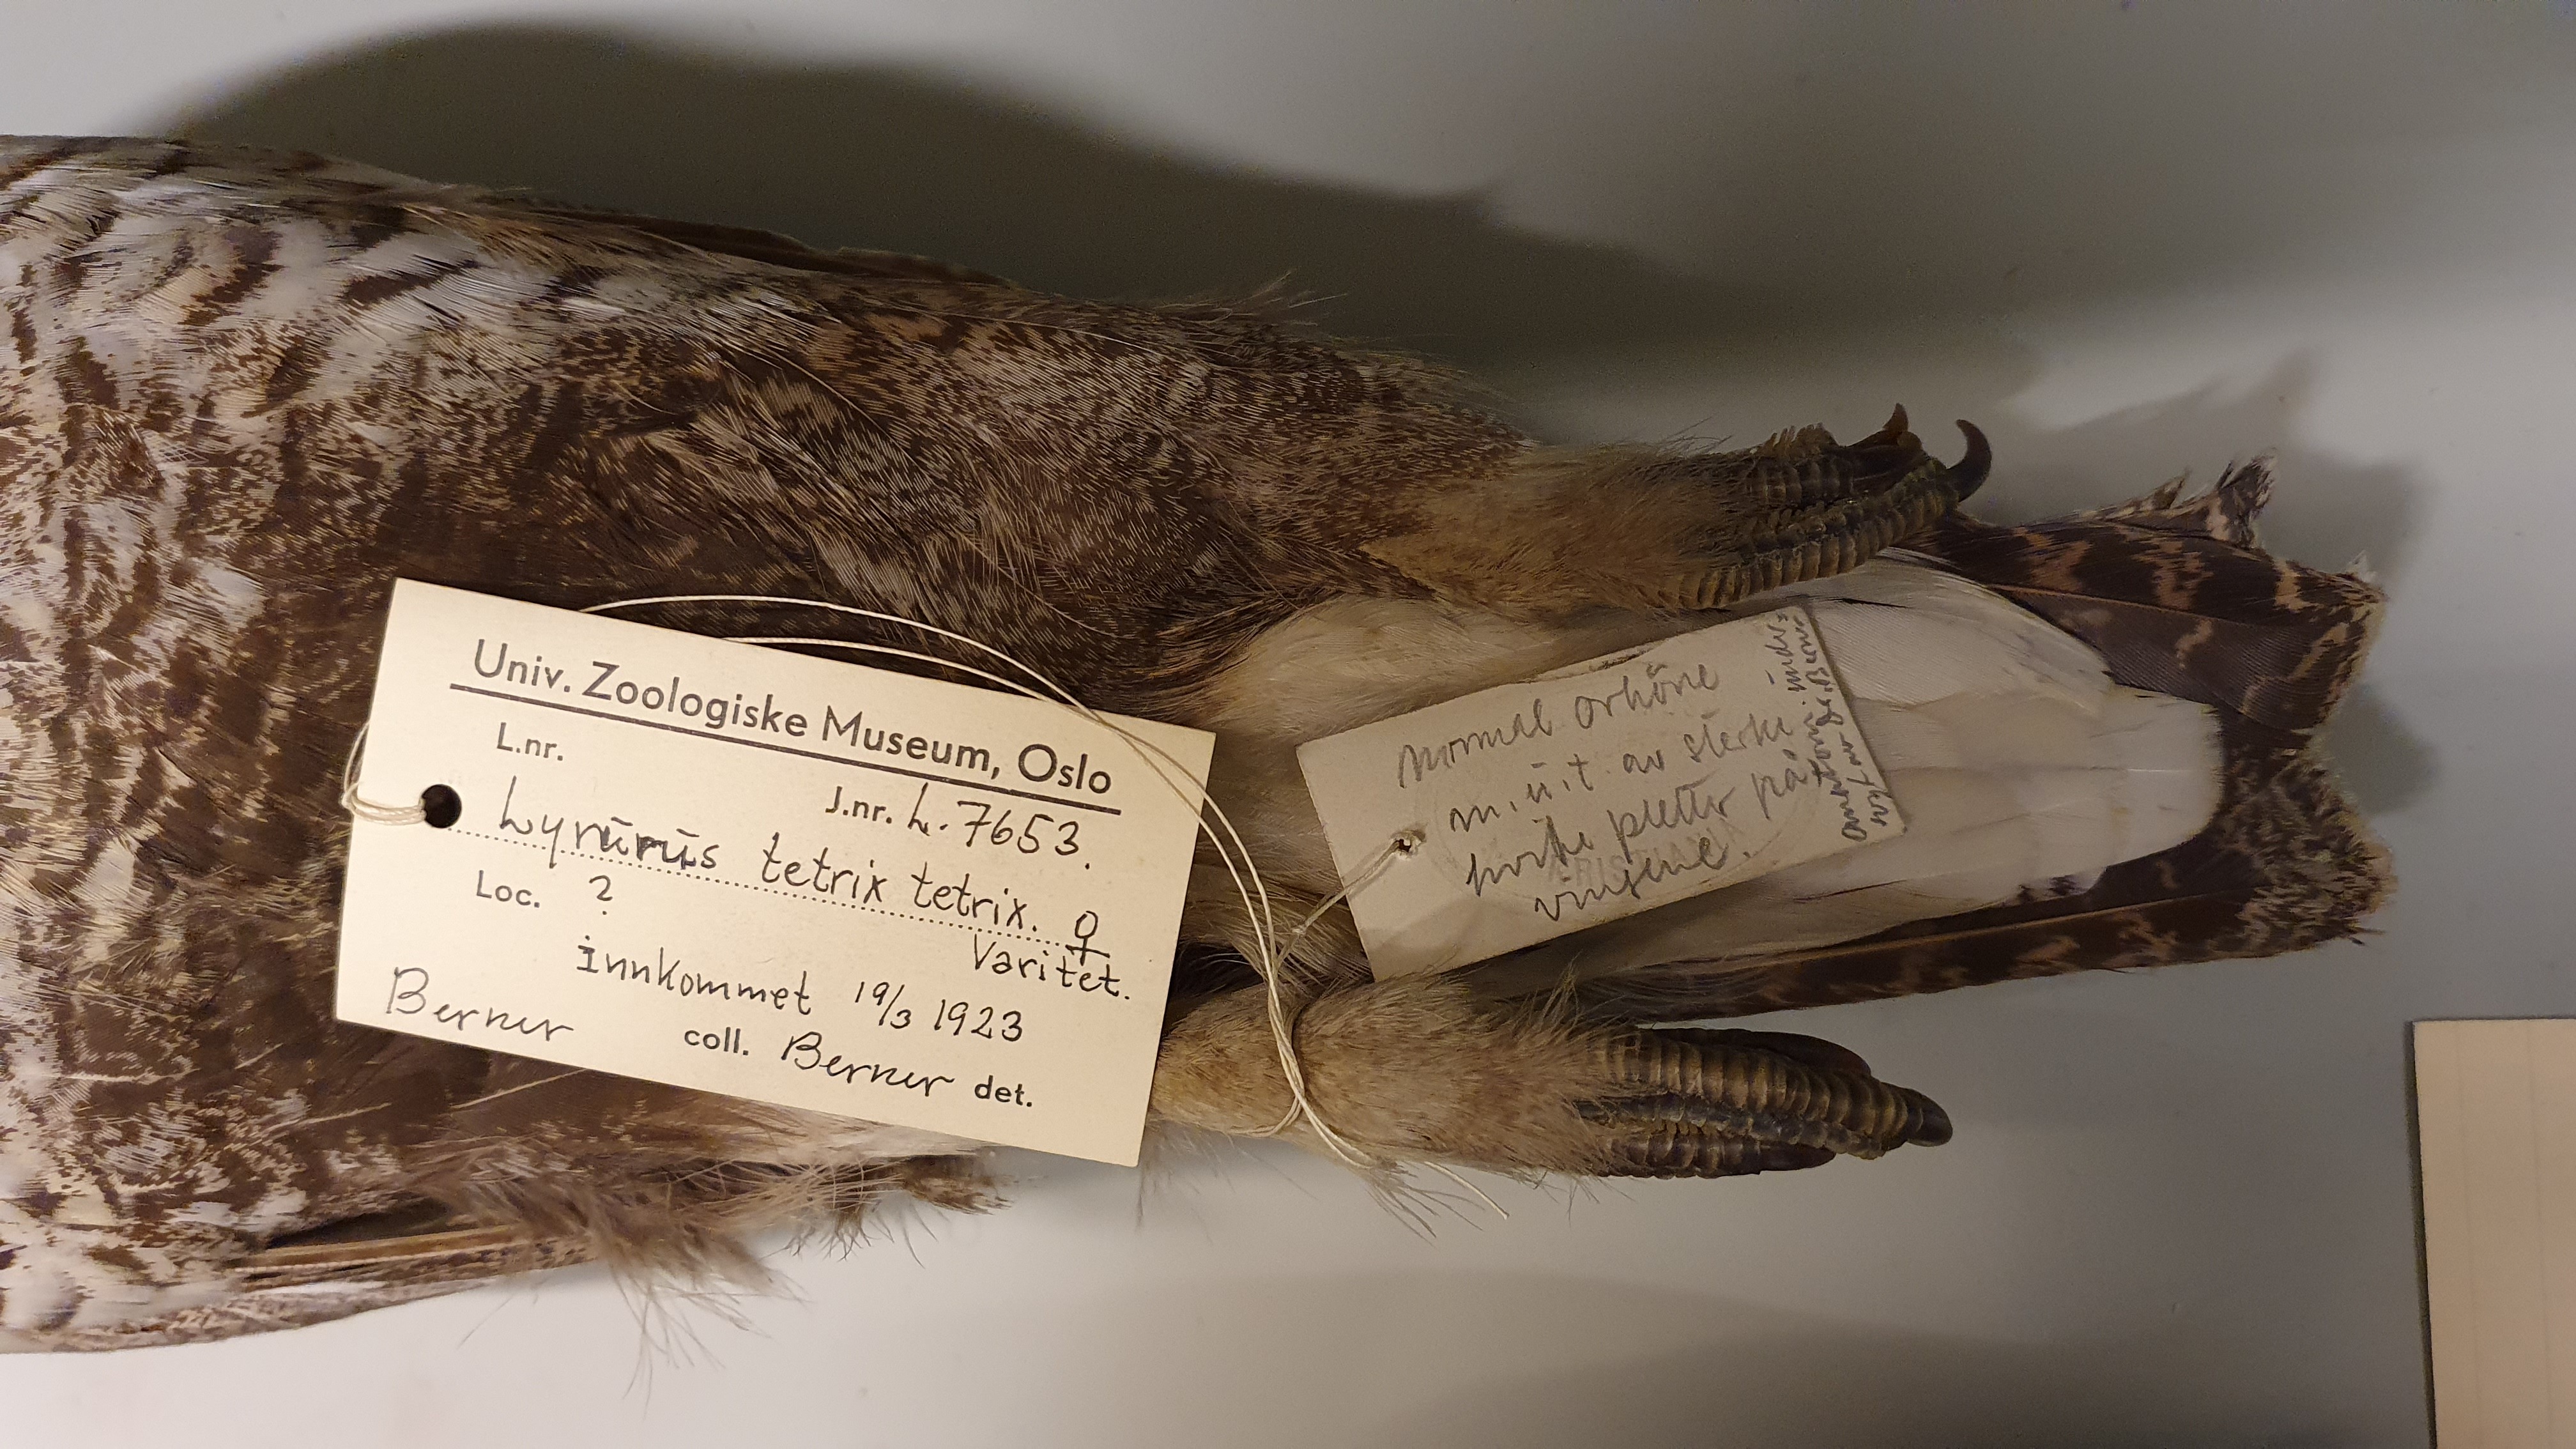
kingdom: Animalia
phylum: Chordata
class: Aves
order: Galliformes
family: Phasianidae
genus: Lyrurus
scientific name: Lyrurus tetrix
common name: Black grouse
